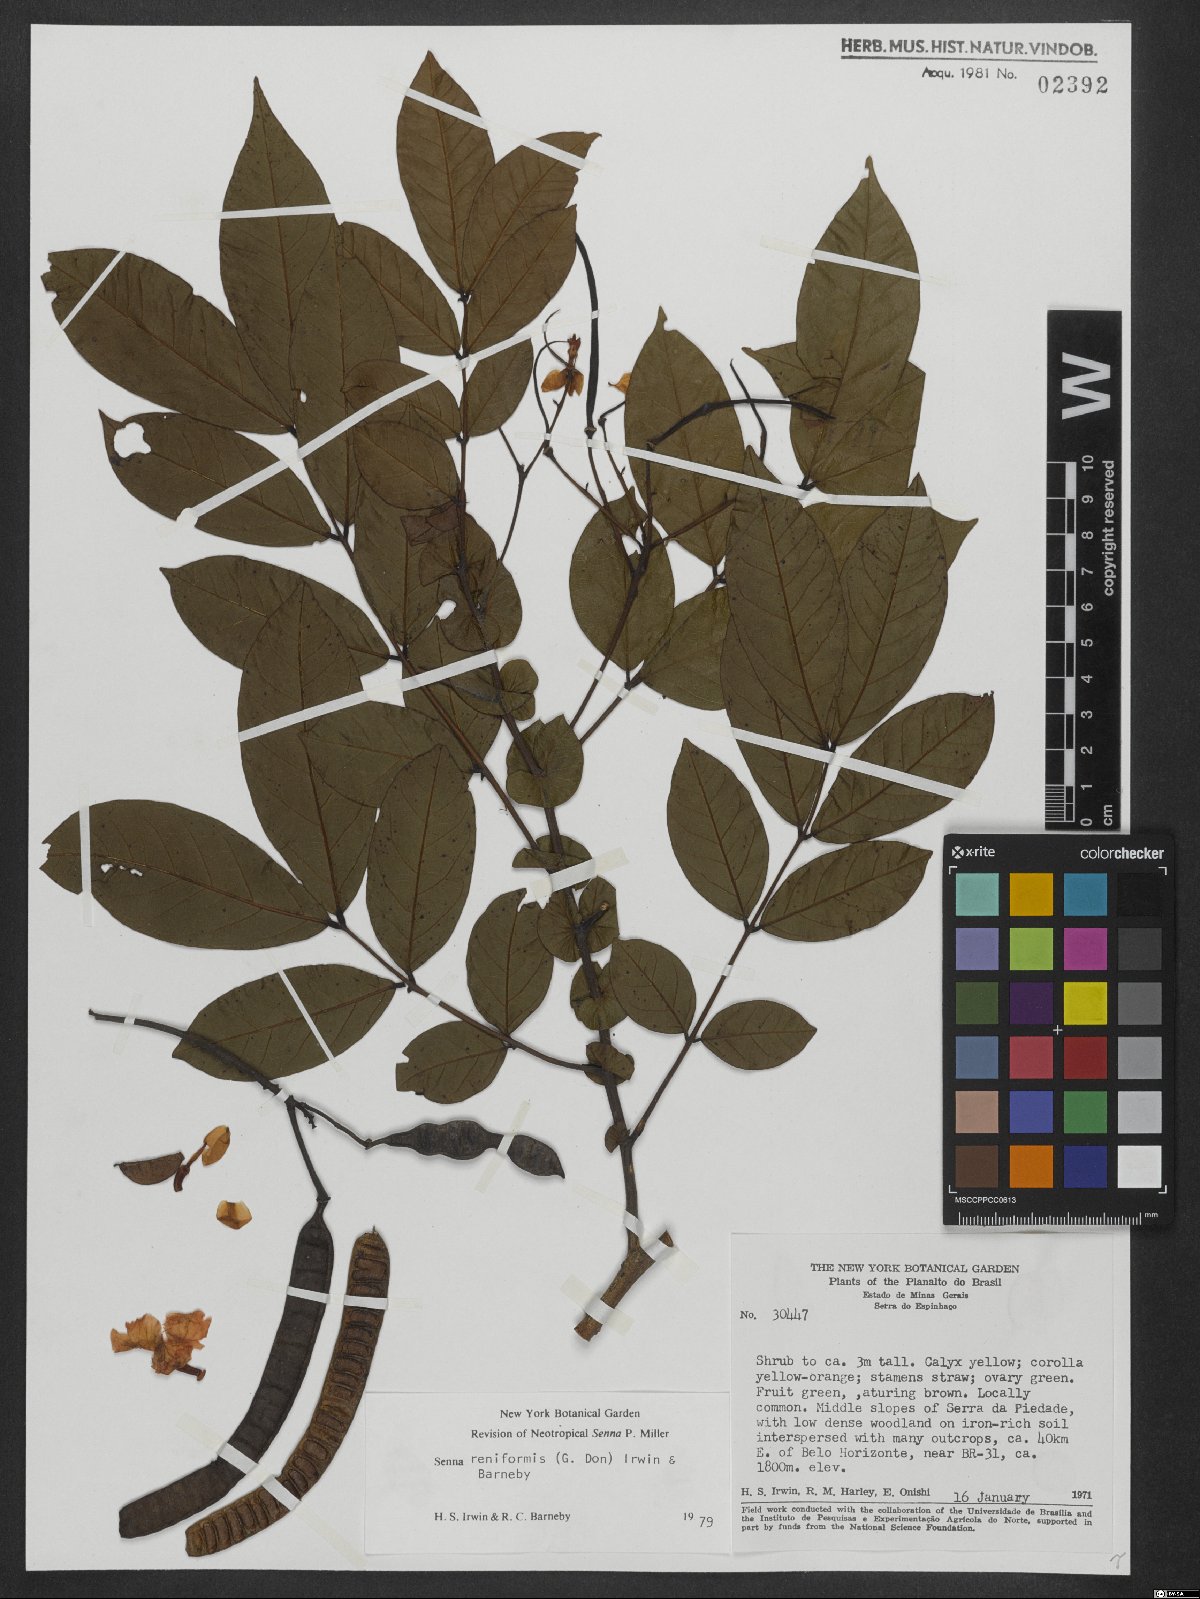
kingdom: Plantae
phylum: Tracheophyta
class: Magnoliopsida
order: Fabales
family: Fabaceae
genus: Senna
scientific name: Senna reniformis
